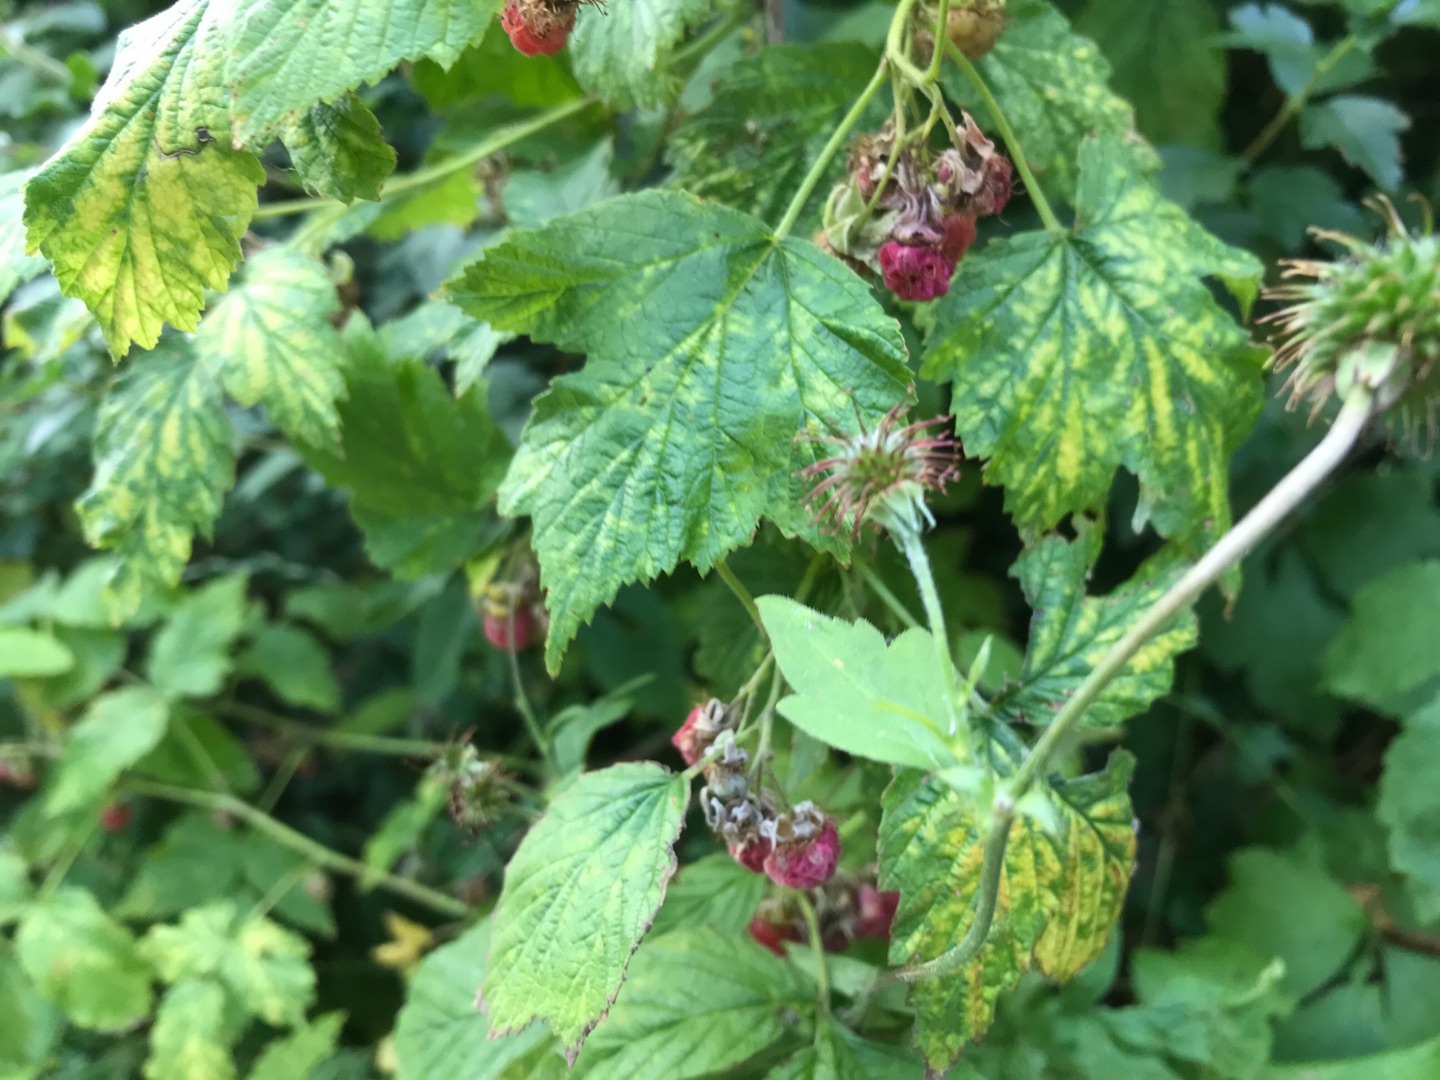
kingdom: Plantae
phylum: Tracheophyta
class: Magnoliopsida
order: Rosales
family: Rosaceae
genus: Rubus
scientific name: Rubus idaeus
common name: Hindbær
